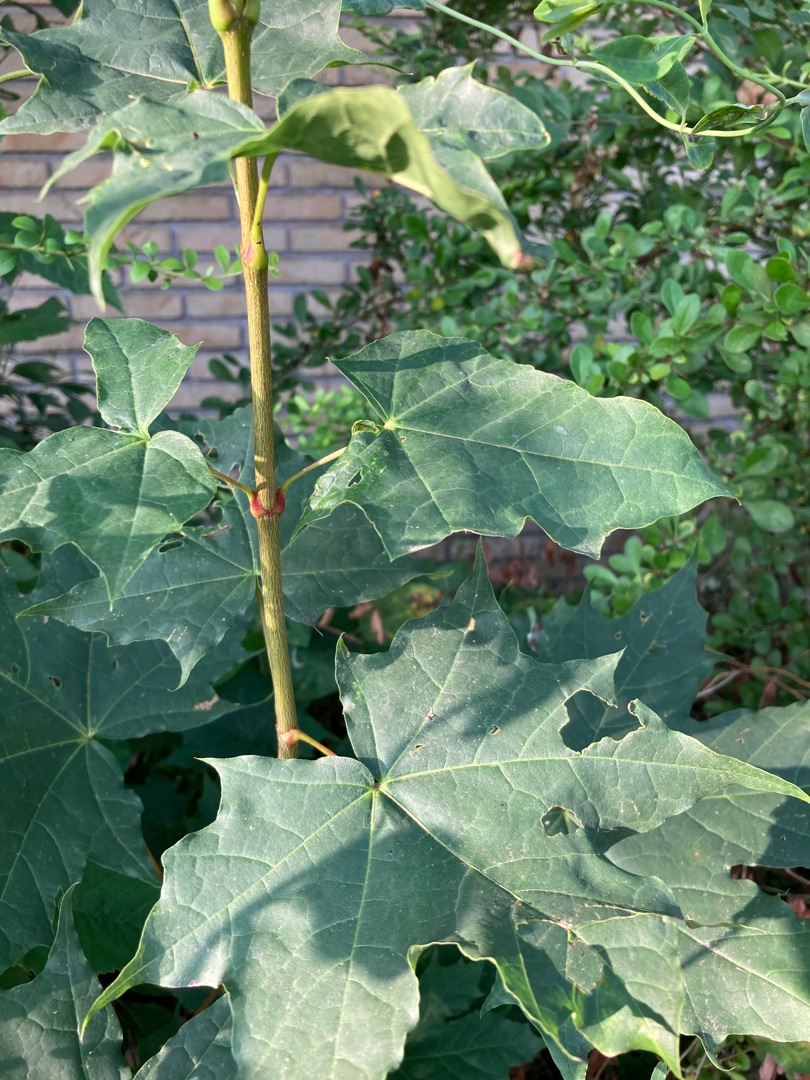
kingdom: Plantae
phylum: Tracheophyta
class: Magnoliopsida
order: Sapindales
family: Sapindaceae
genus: Acer
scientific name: Acer platanoides
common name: Spids-løn
